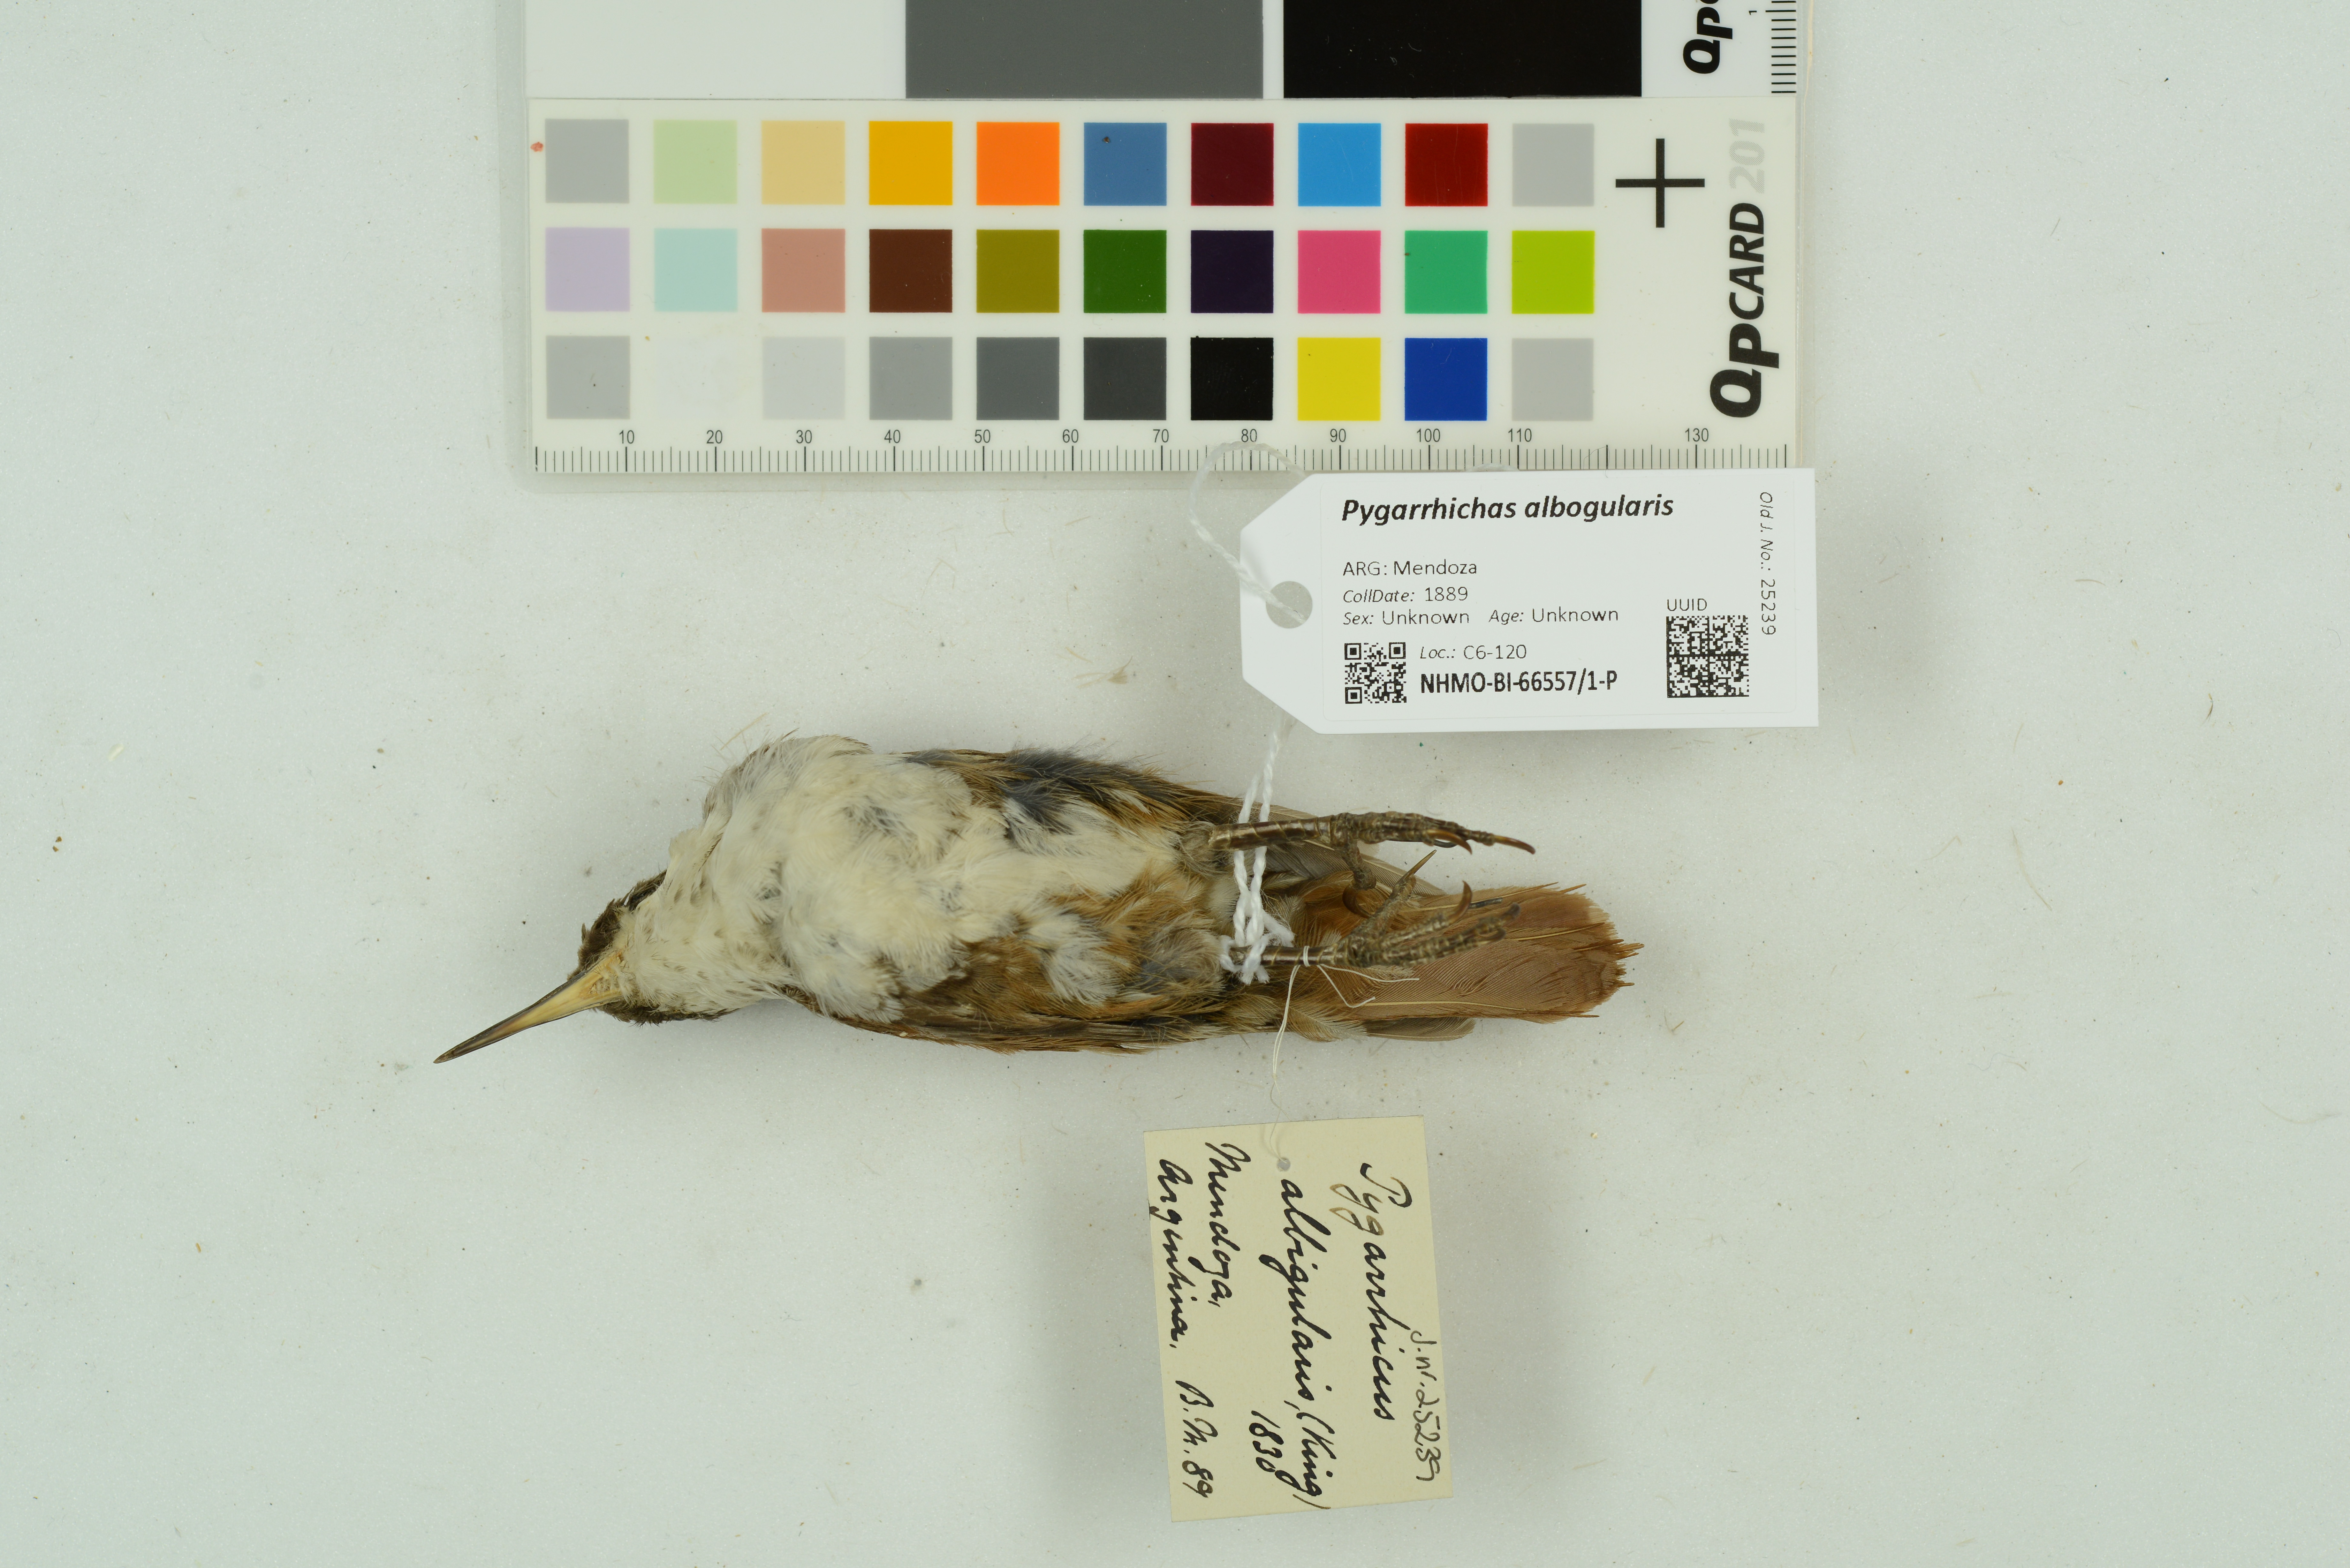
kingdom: Animalia
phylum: Chordata
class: Aves
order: Passeriformes
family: Furnariidae
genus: Pygarrhichas
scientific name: Pygarrhichas albogularis
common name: White-throated treerunner
